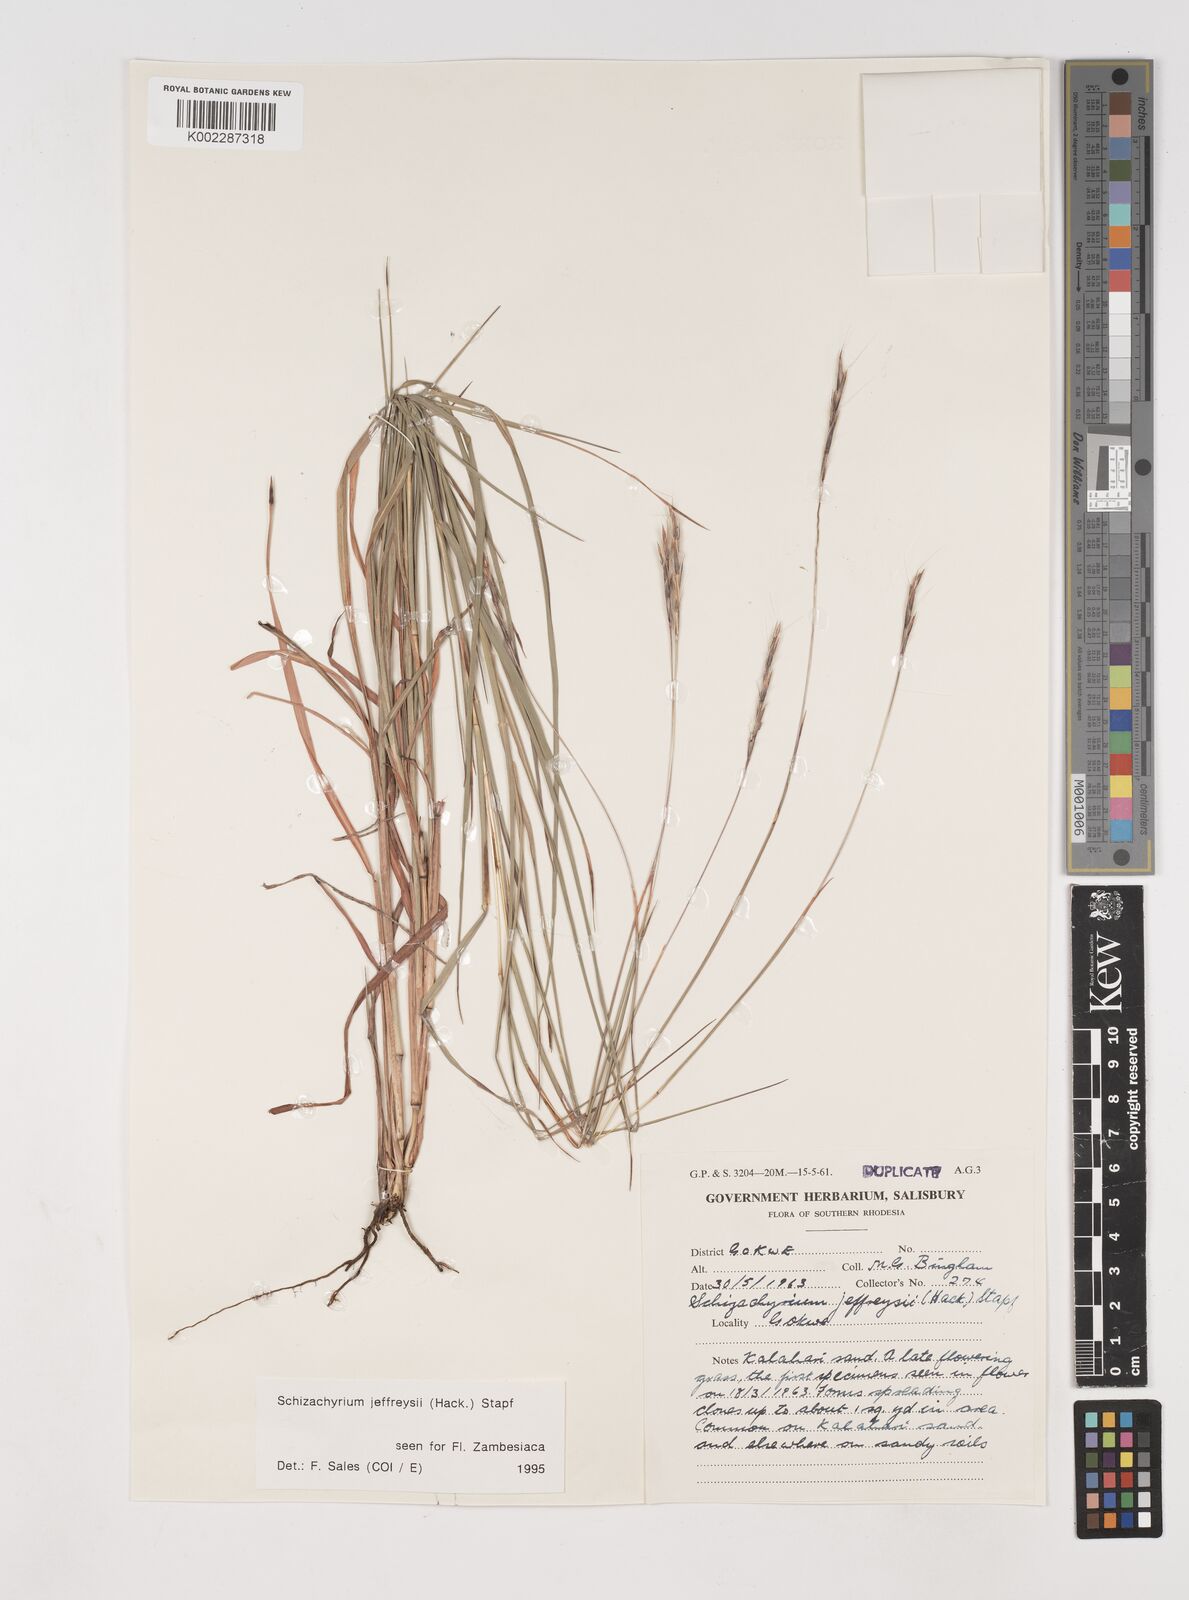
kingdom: Plantae
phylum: Tracheophyta
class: Liliopsida
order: Poales
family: Poaceae
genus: Schizachyrium
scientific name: Schizachyrium jeffreysii
